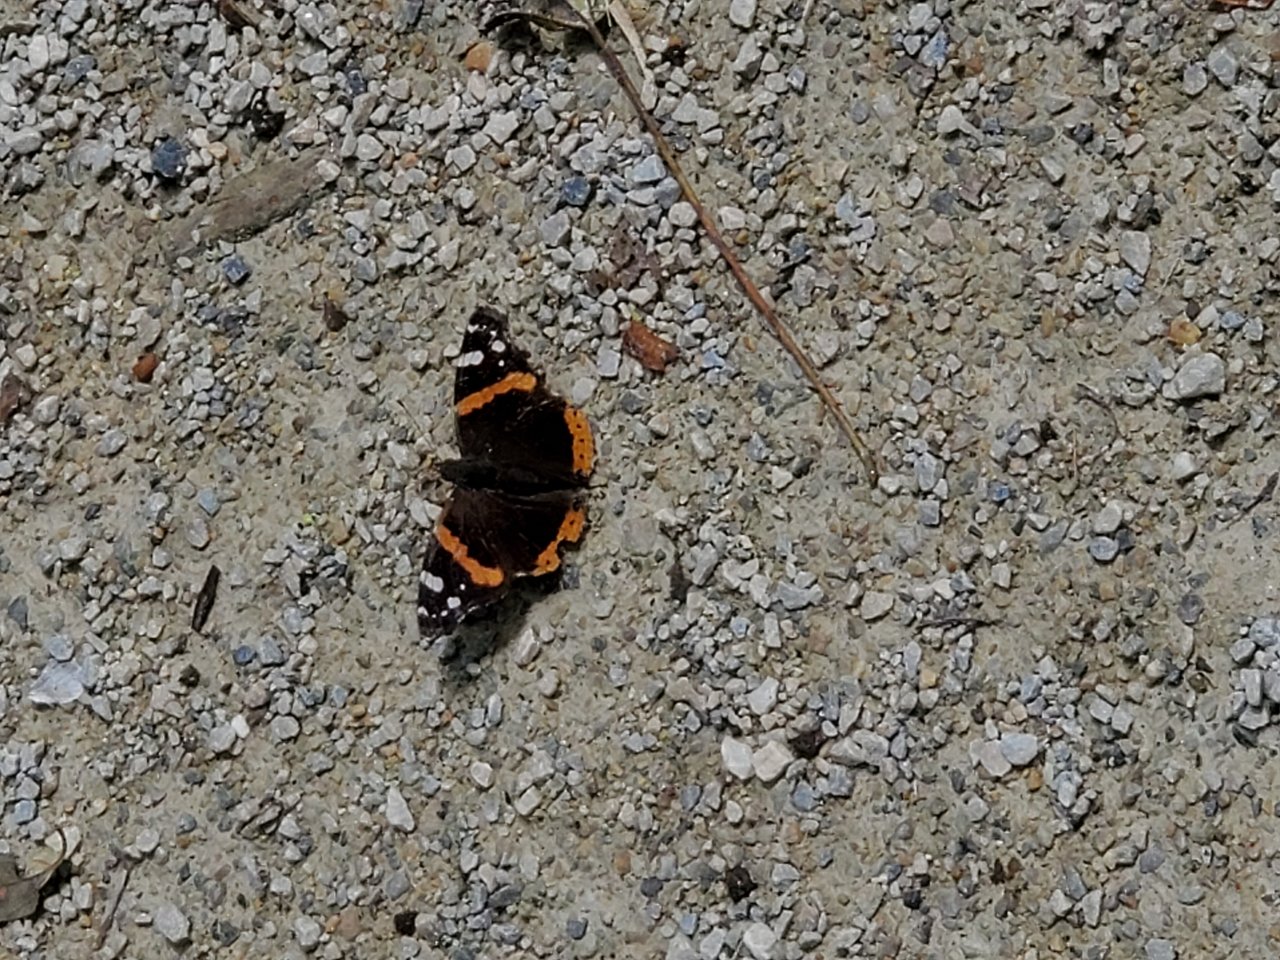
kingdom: Animalia
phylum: Arthropoda
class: Insecta
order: Lepidoptera
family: Nymphalidae
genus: Vanessa
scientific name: Vanessa atalanta
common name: Red Admiral
